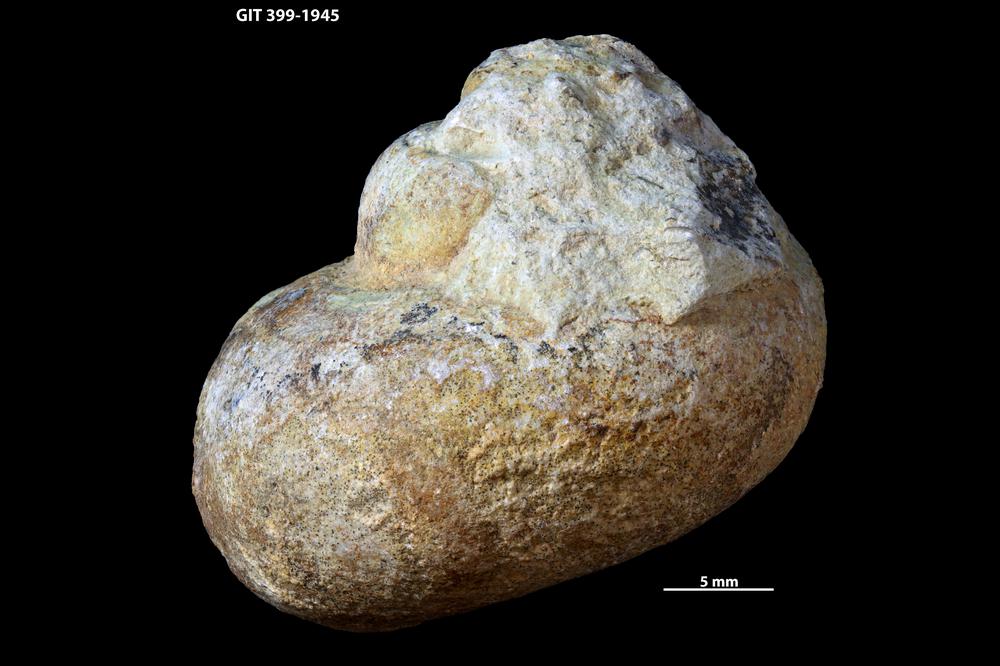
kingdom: Animalia
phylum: Mollusca
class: Gastropoda
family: Holopeidae
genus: Holopea
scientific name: Holopea Turbo balticus
